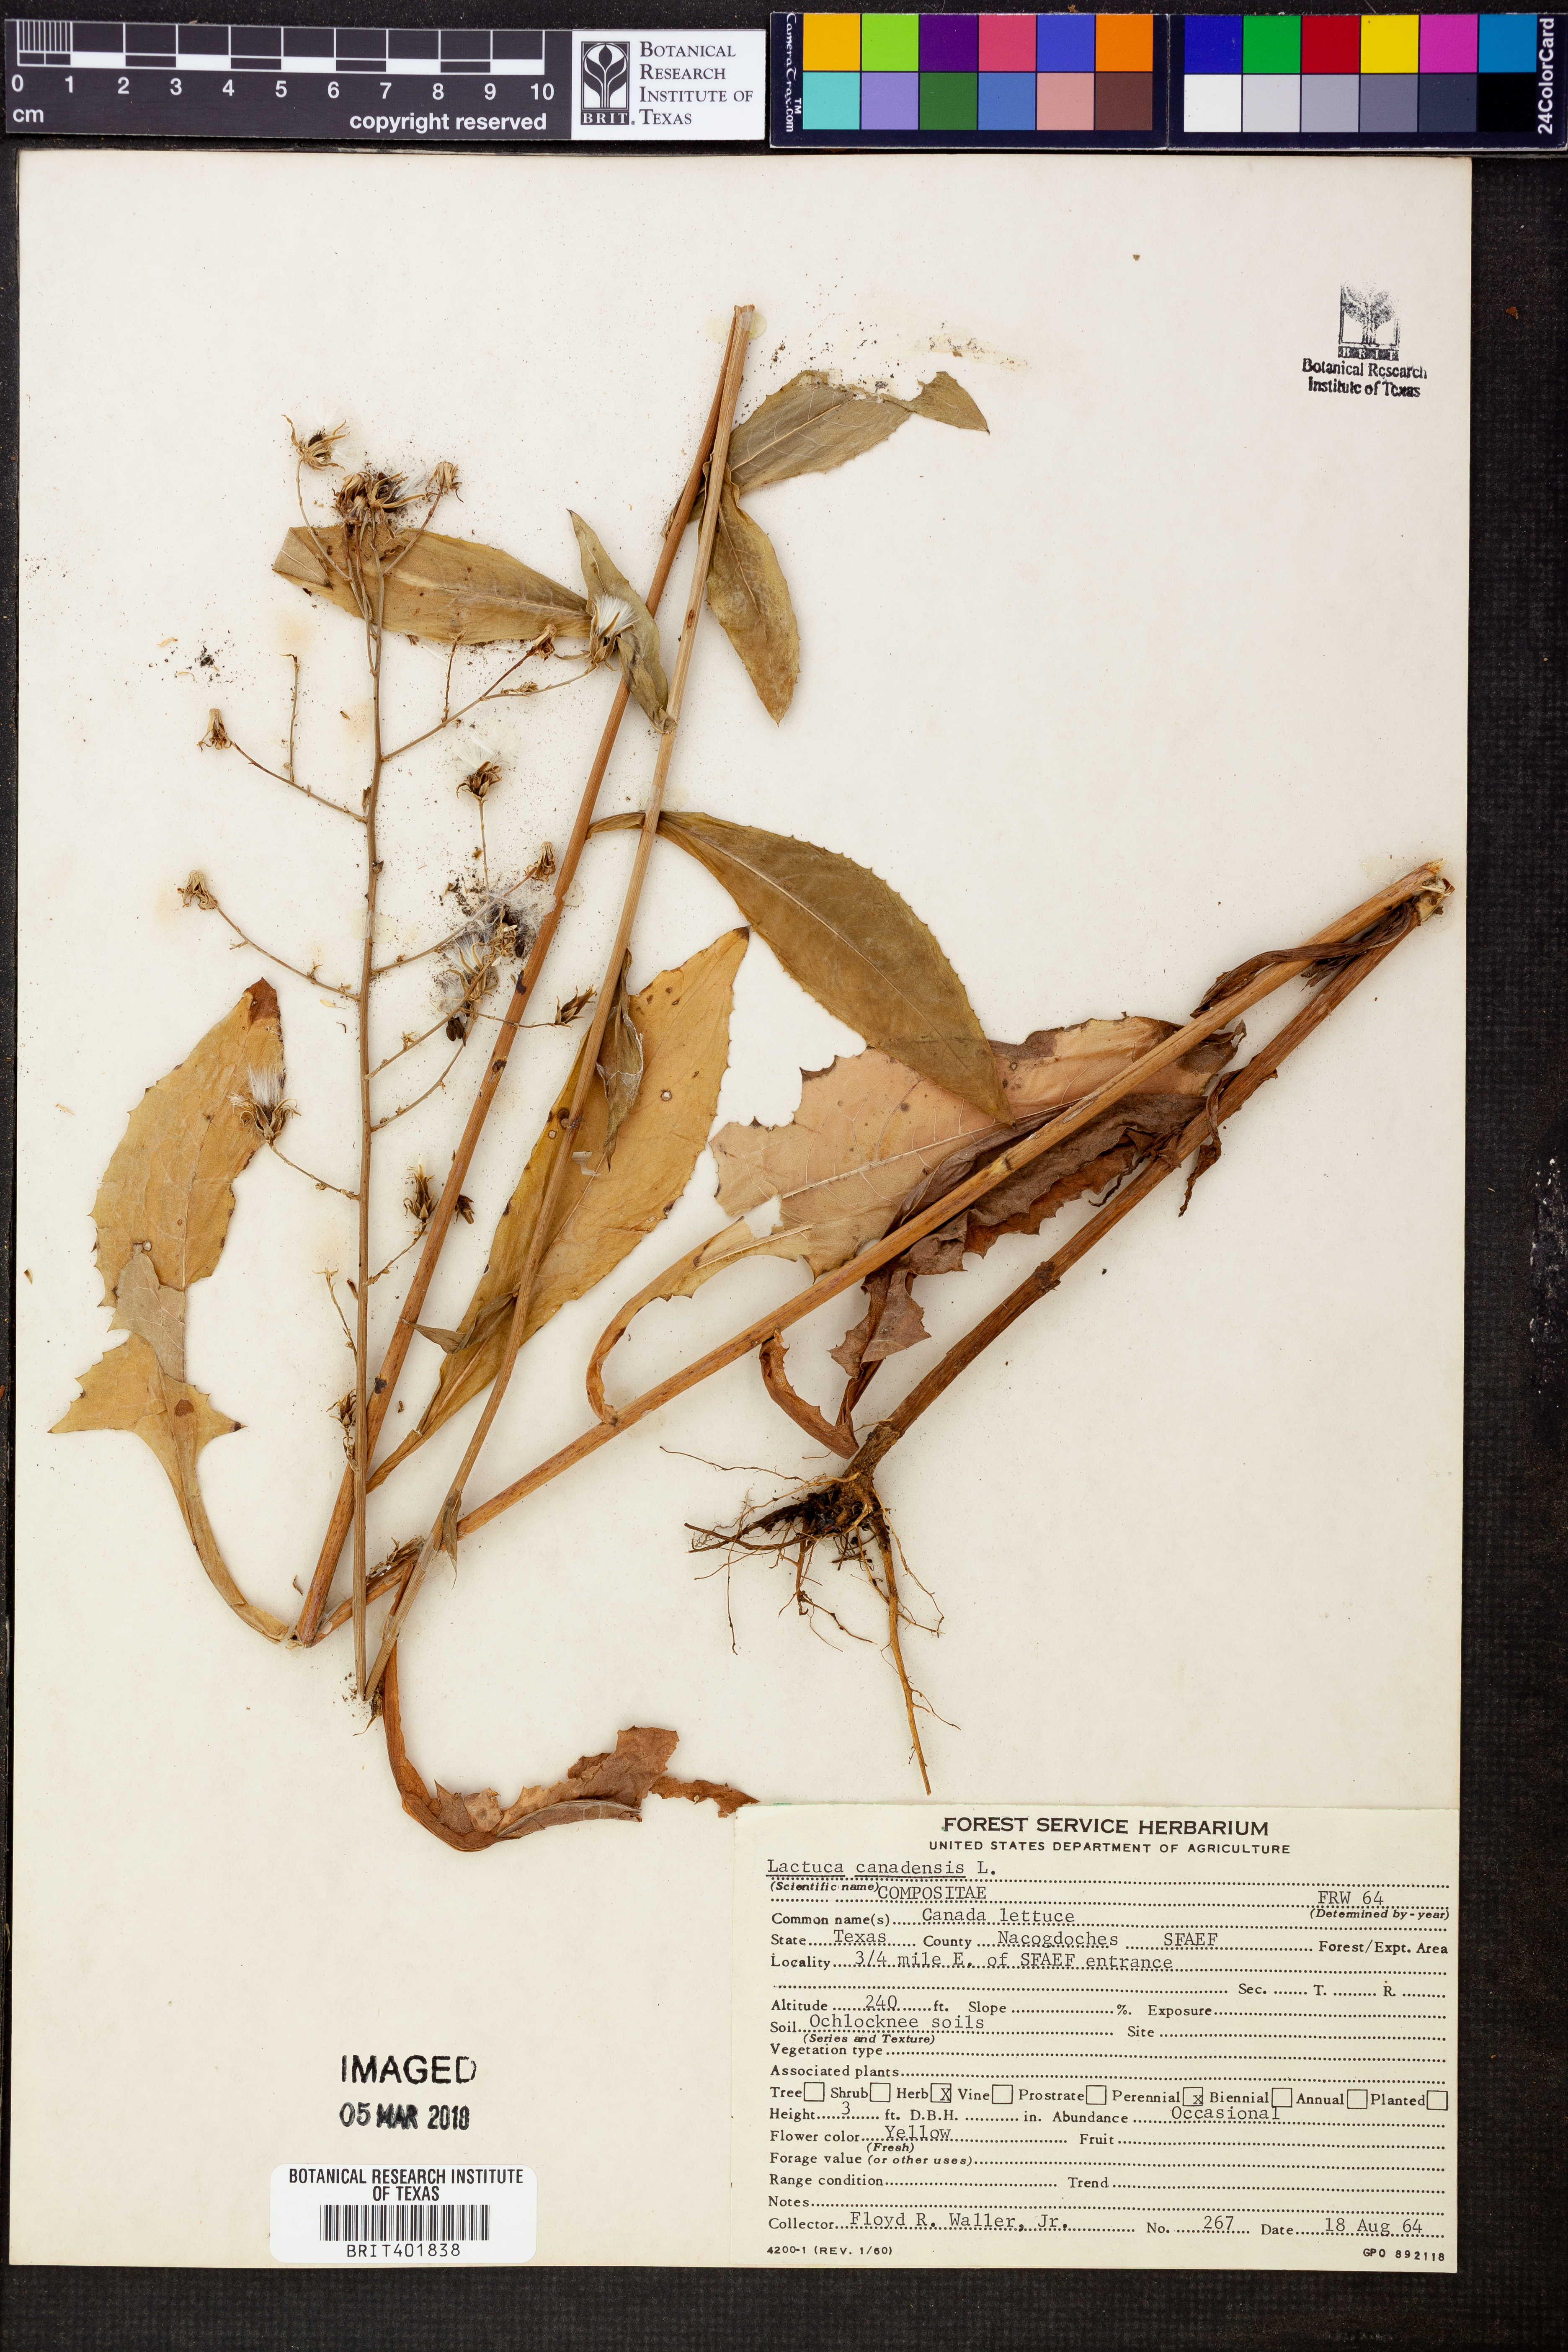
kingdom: Plantae
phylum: Tracheophyta
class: Magnoliopsida
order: Asterales
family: Asteraceae
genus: Lactuca
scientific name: Lactuca canadensis
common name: Canada lettuce
